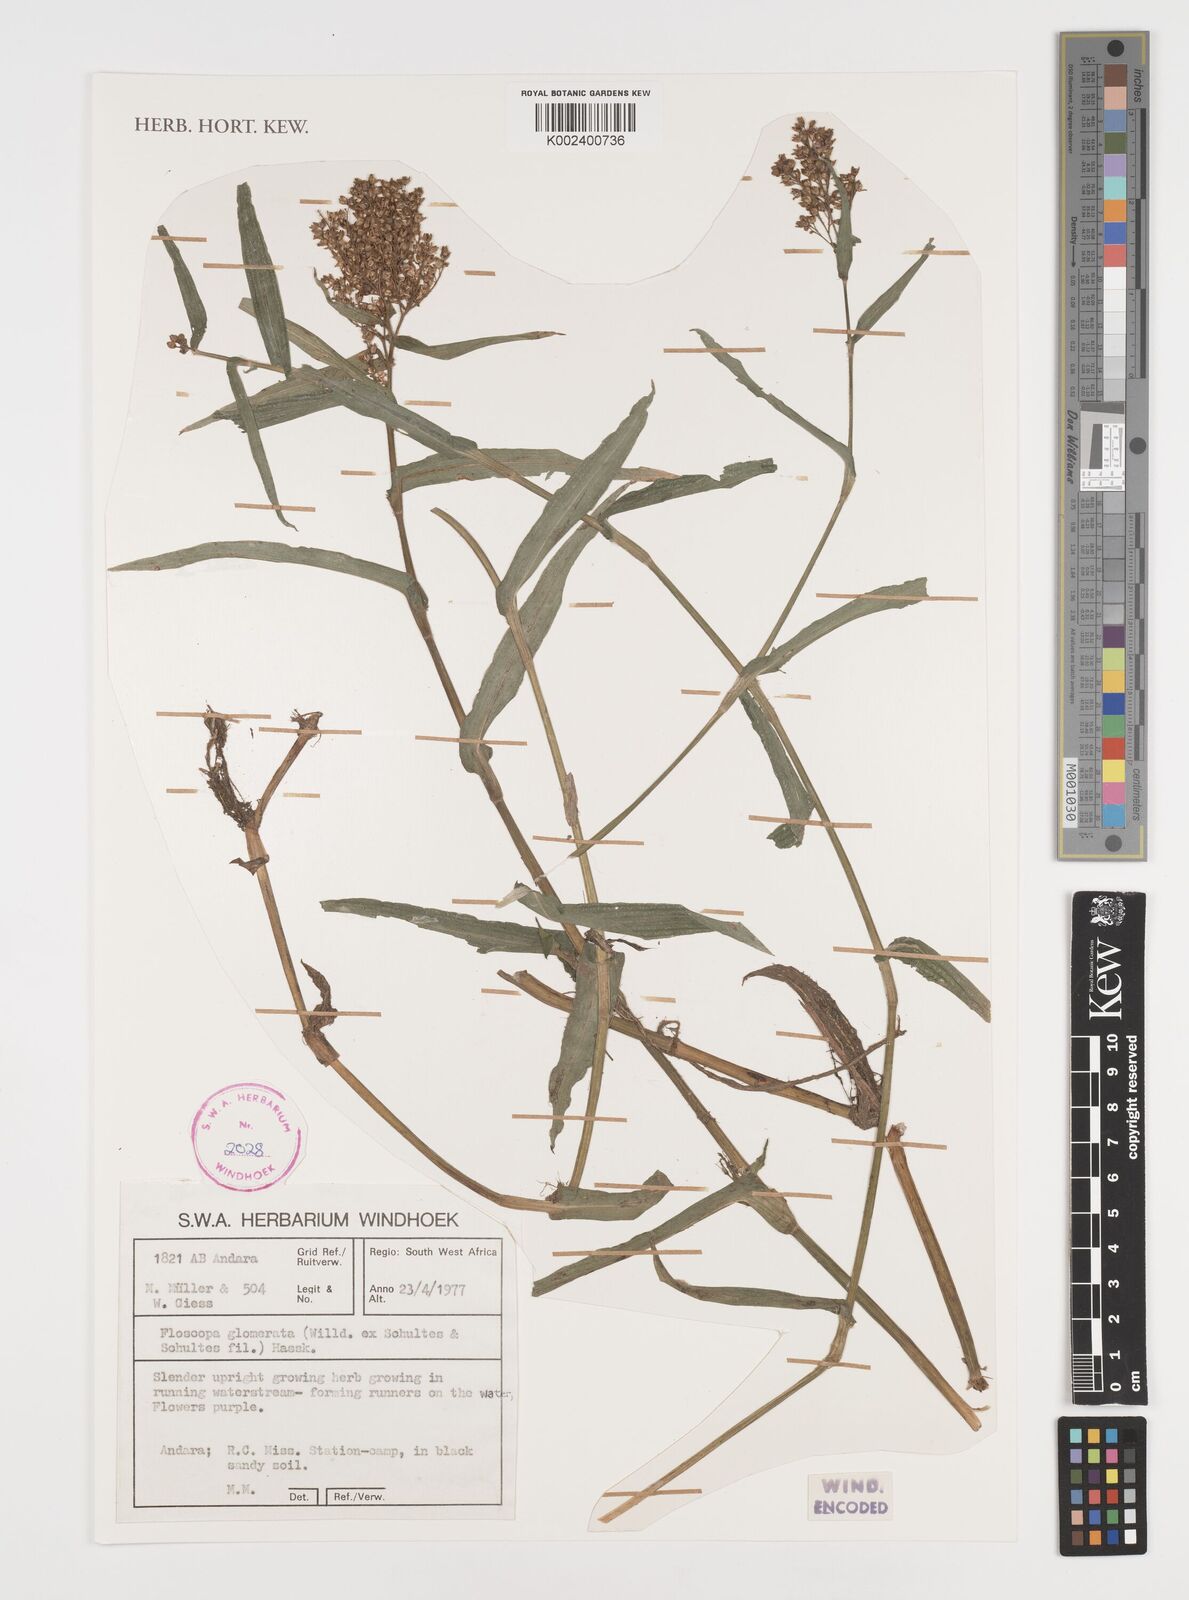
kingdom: Plantae
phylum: Tracheophyta
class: Liliopsida
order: Commelinales
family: Commelinaceae
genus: Floscopa
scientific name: Floscopa glomerata
